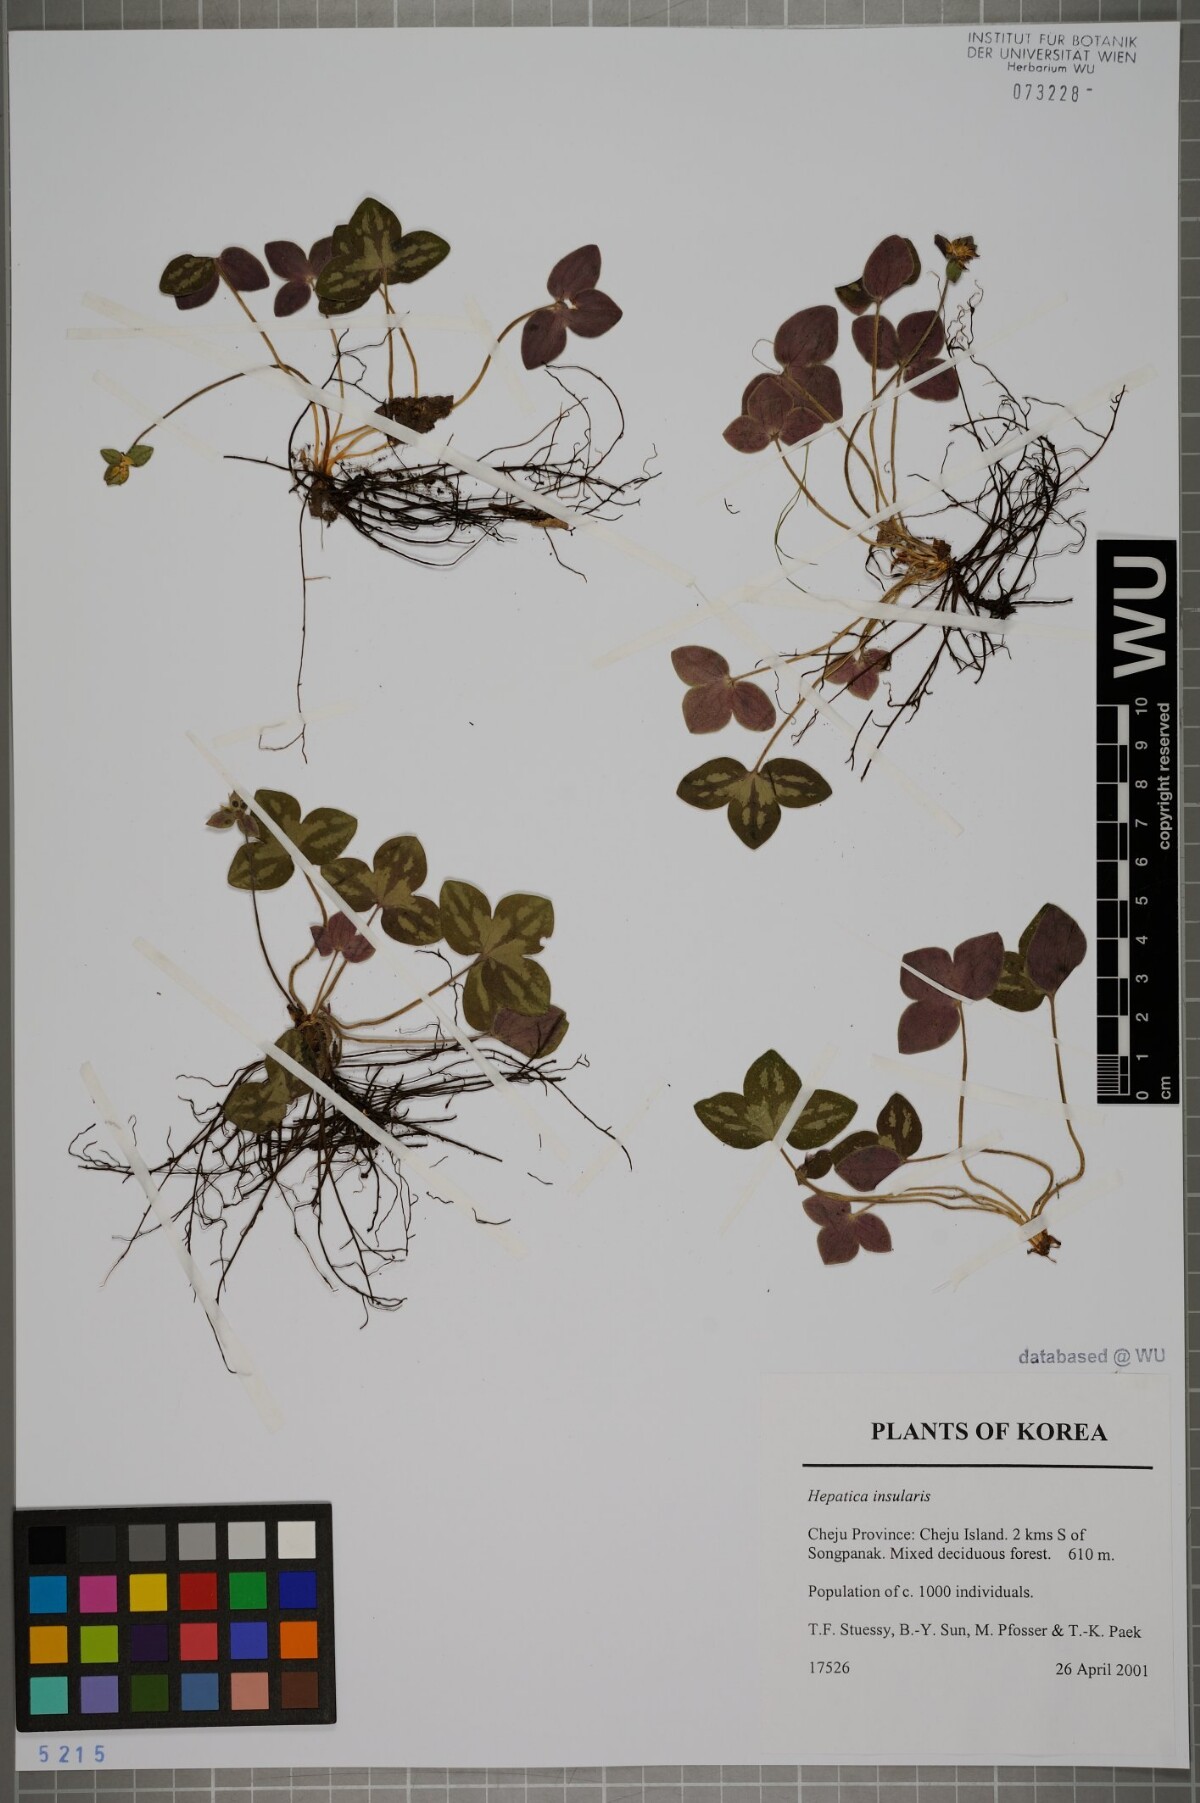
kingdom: Plantae
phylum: Tracheophyta
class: Magnoliopsida
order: Ranunculales
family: Ranunculaceae
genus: Hepatica
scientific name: Hepatica insularis
